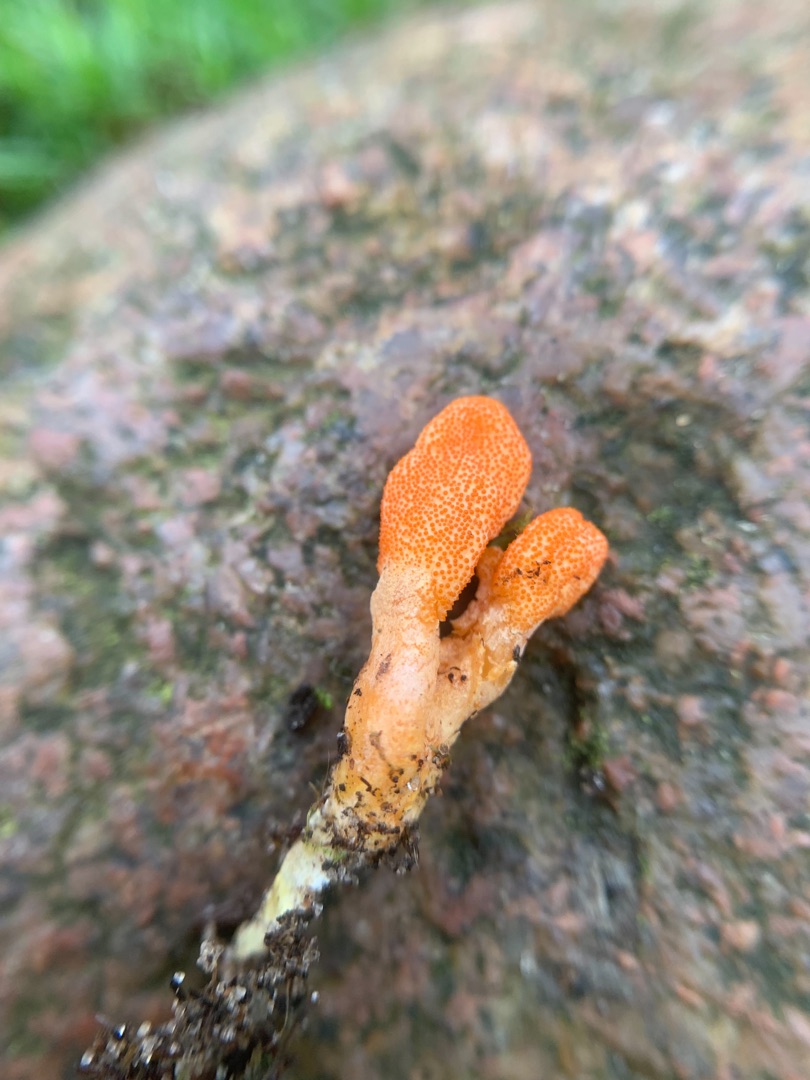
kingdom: Fungi
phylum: Ascomycota
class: Sordariomycetes
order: Hypocreales
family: Cordycipitaceae
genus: Cordyceps
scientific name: Cordyceps militaris
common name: Puppe-snyltekølle
